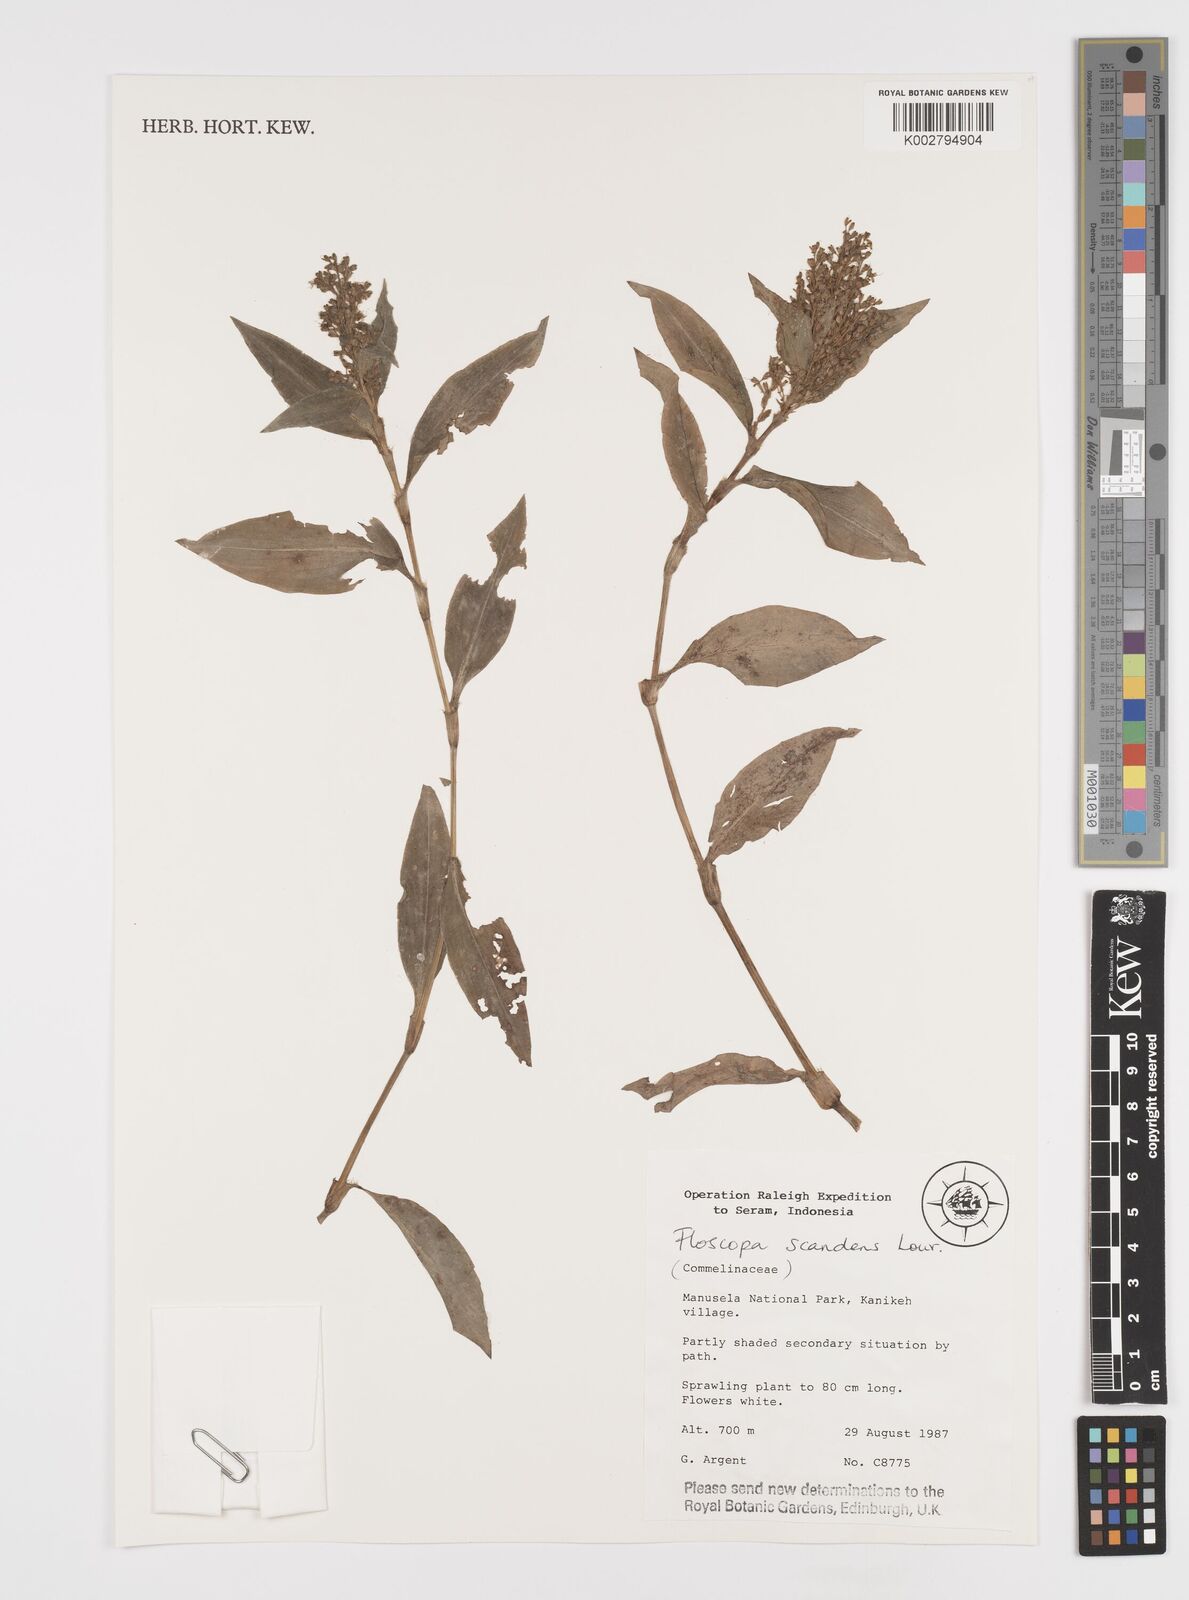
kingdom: Plantae
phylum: Tracheophyta
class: Liliopsida
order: Commelinales
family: Commelinaceae
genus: Floscopa
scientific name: Floscopa scandens
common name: Climbing flower cup
